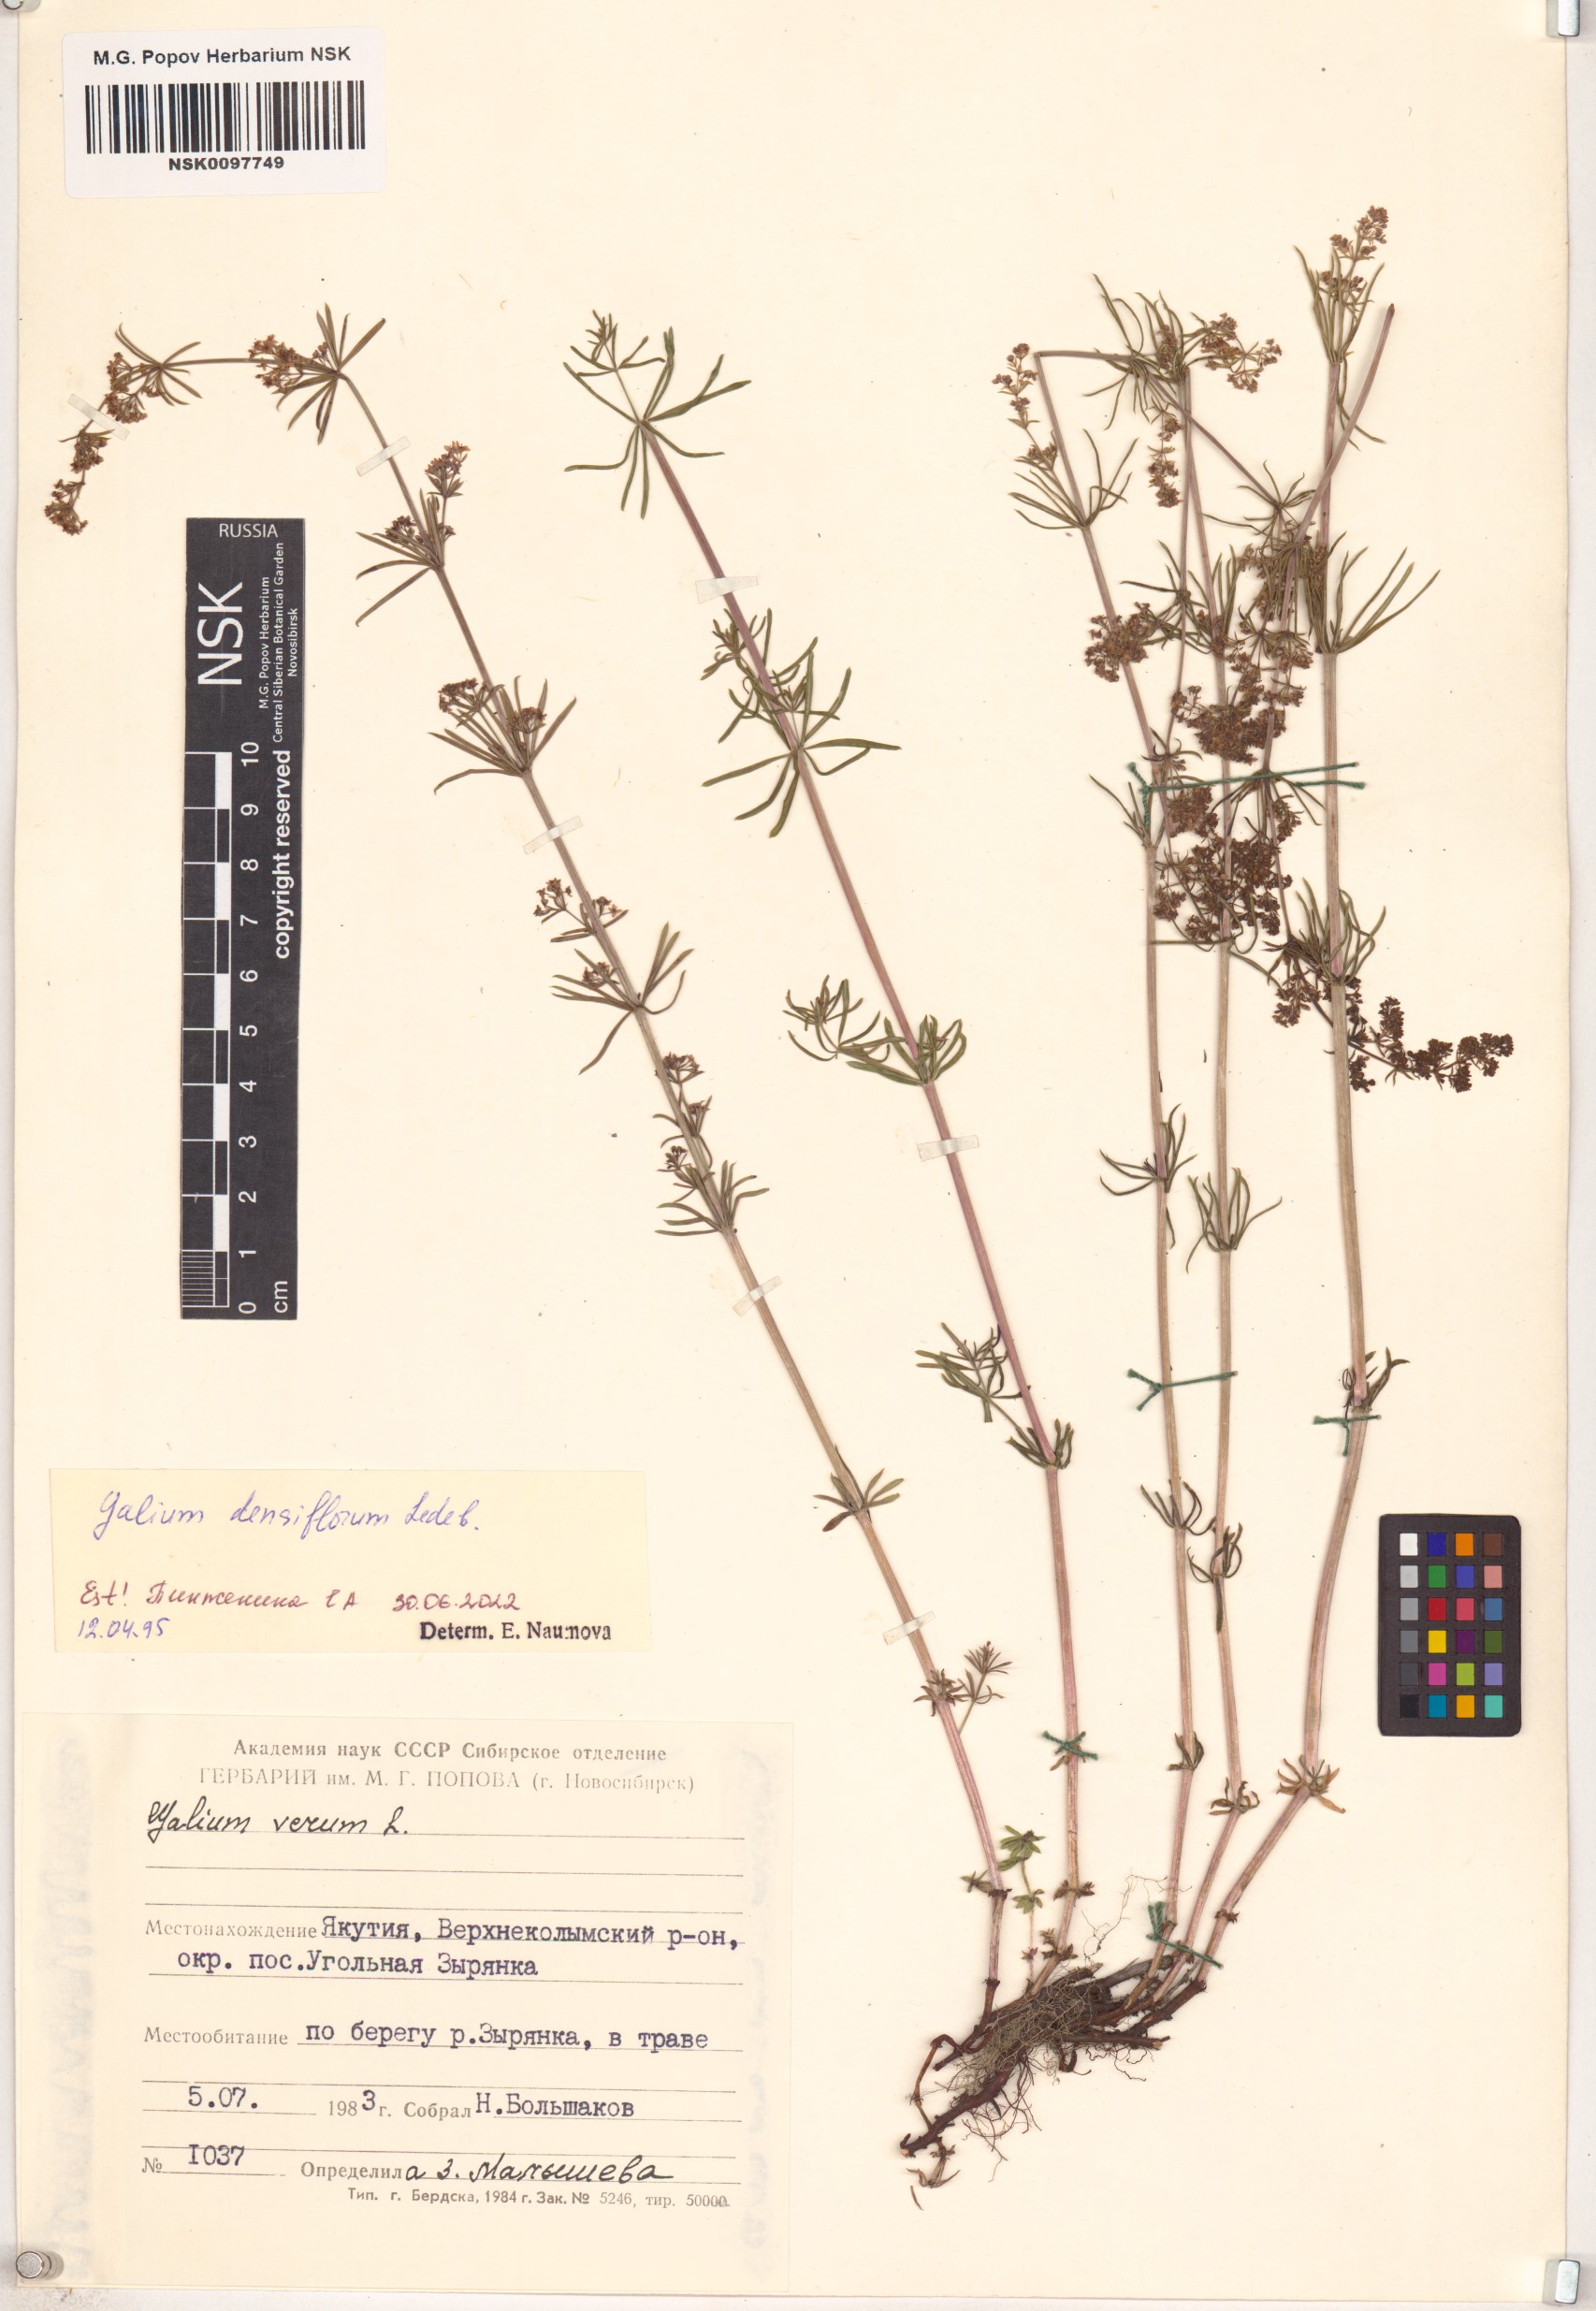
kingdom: Plantae
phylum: Tracheophyta
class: Magnoliopsida
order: Gentianales
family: Rubiaceae
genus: Galium
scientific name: Galium densiflorum
